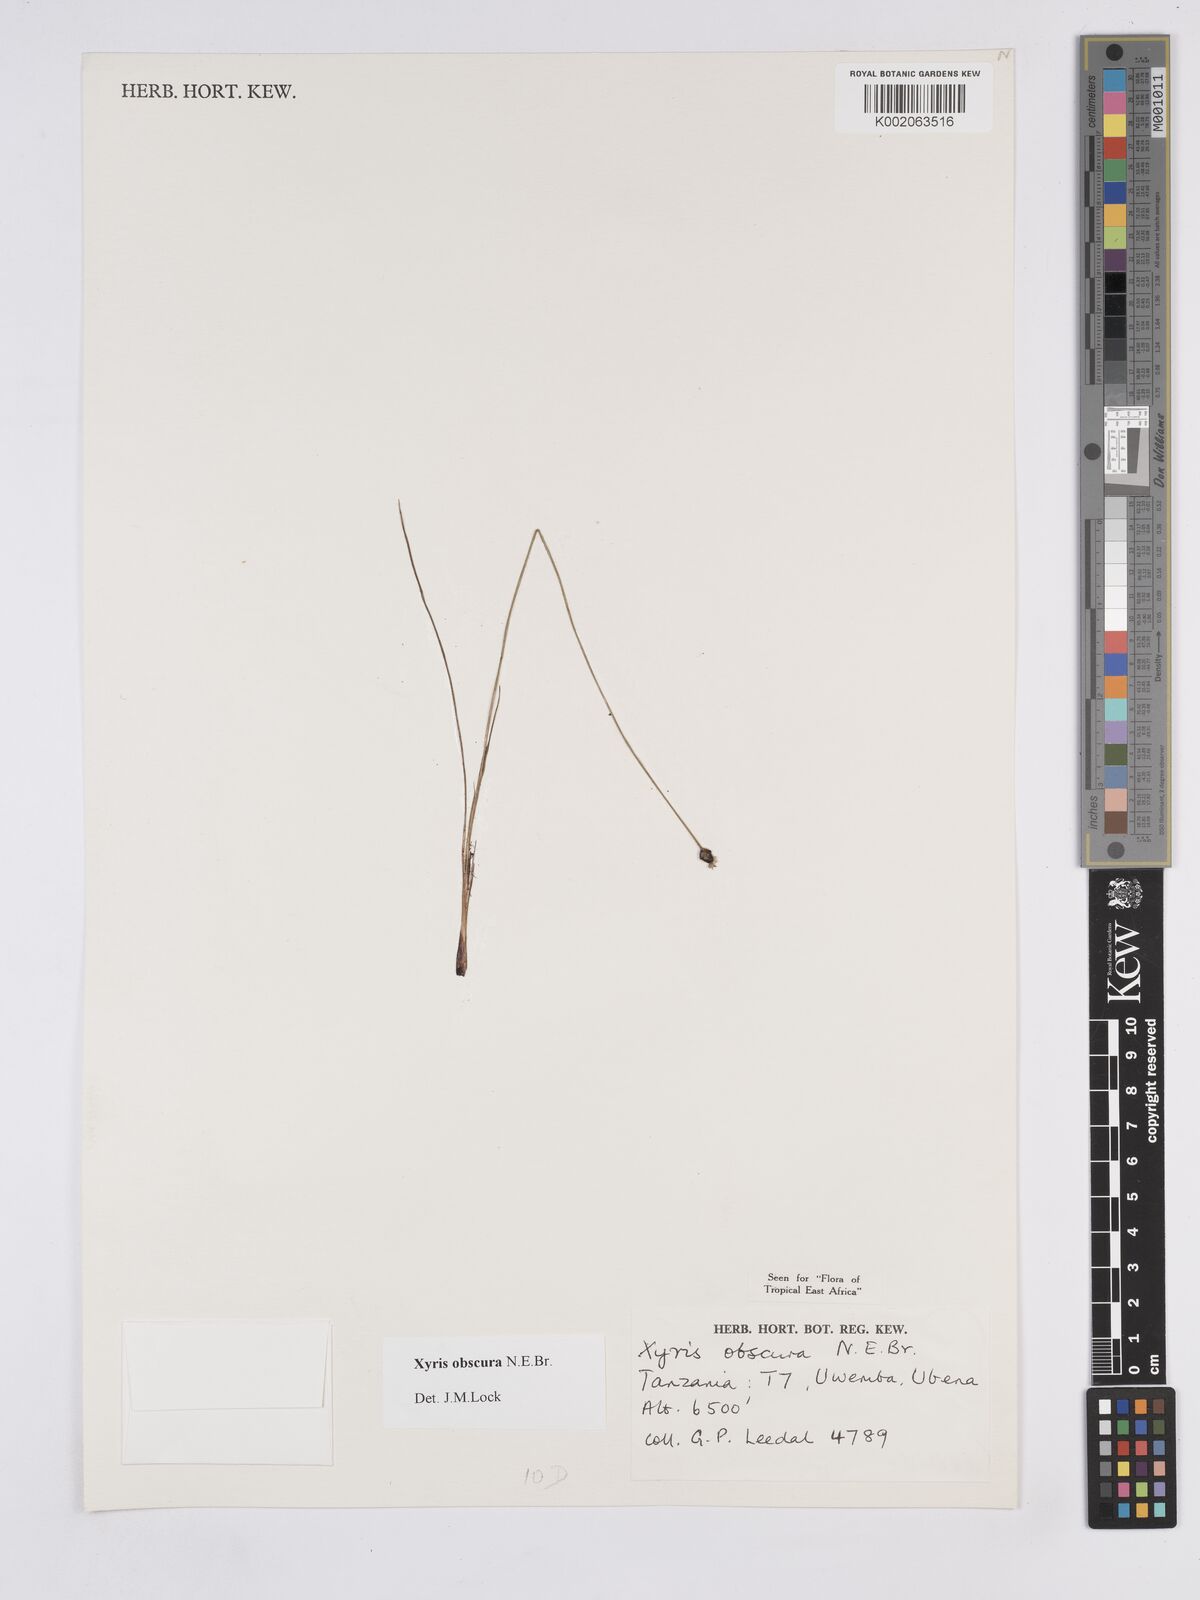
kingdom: Plantae
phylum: Tracheophyta
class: Liliopsida
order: Poales
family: Xyridaceae
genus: Xyris
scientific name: Xyris obscura
